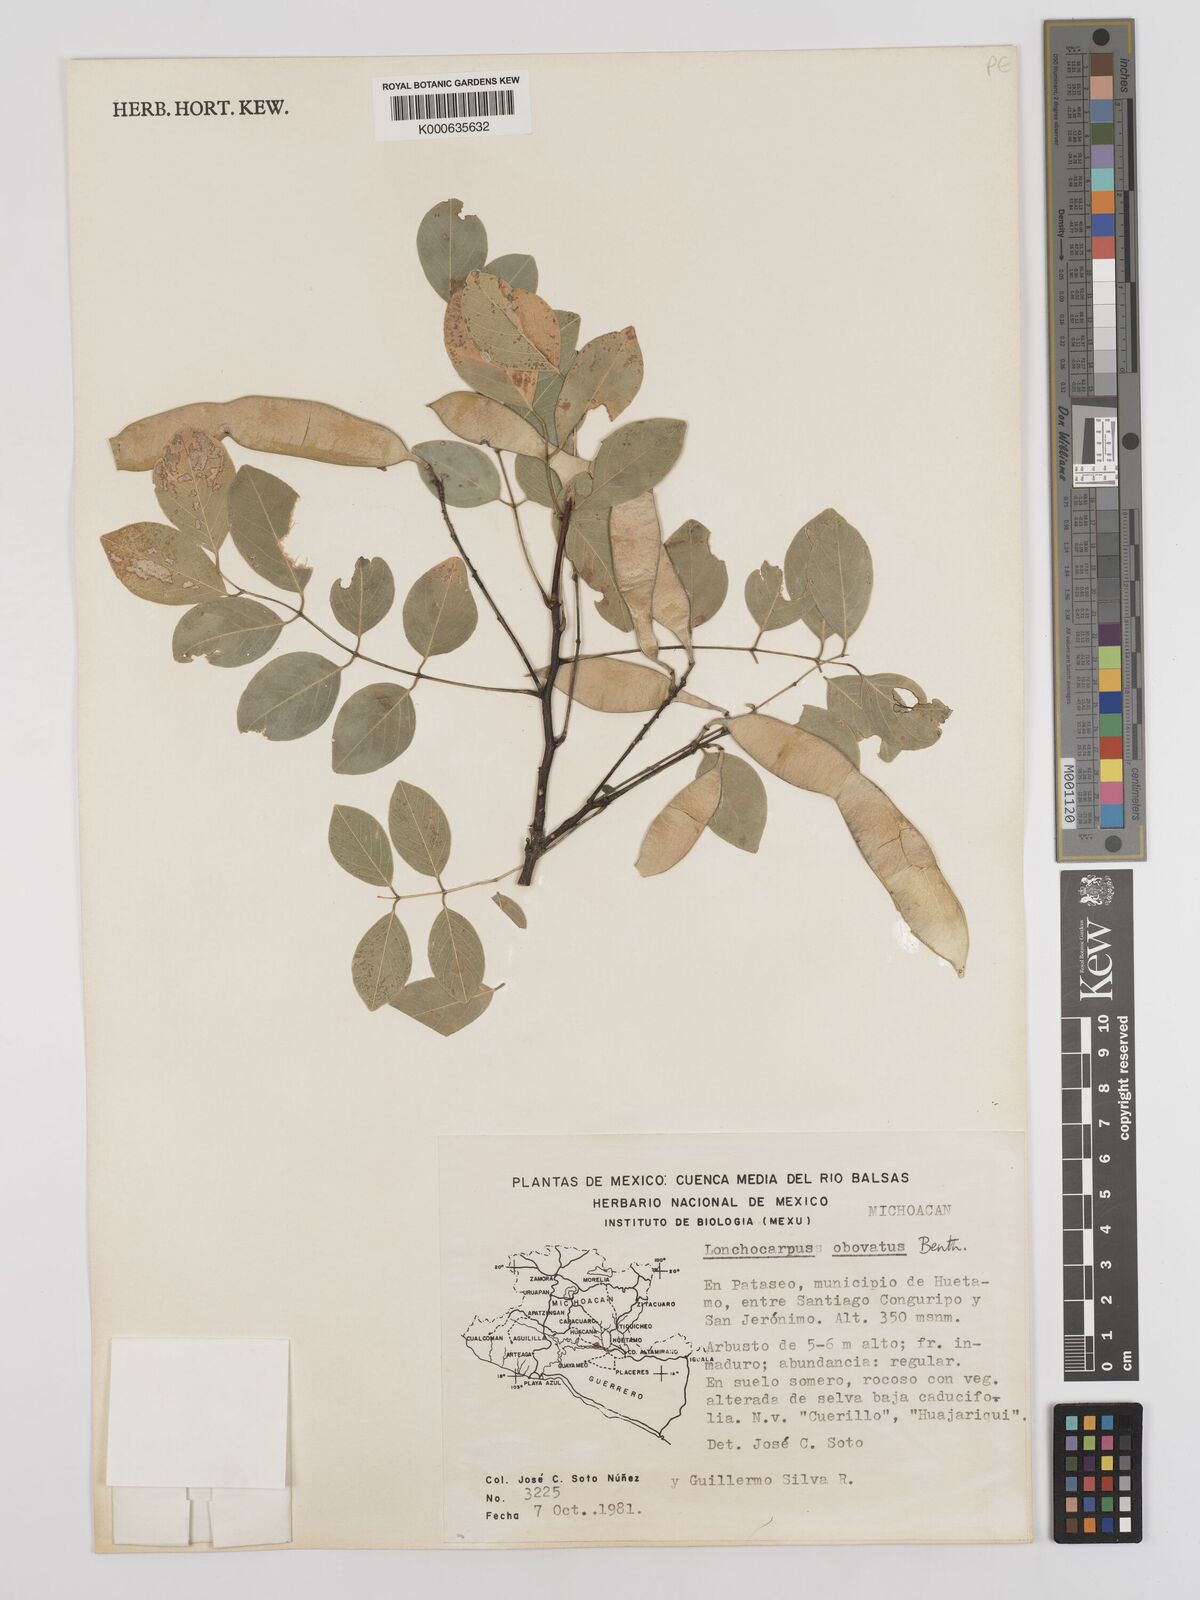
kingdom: Plantae
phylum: Tracheophyta
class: Magnoliopsida
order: Fabales
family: Fabaceae
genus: Lonchocarpus
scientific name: Lonchocarpus obovatus
